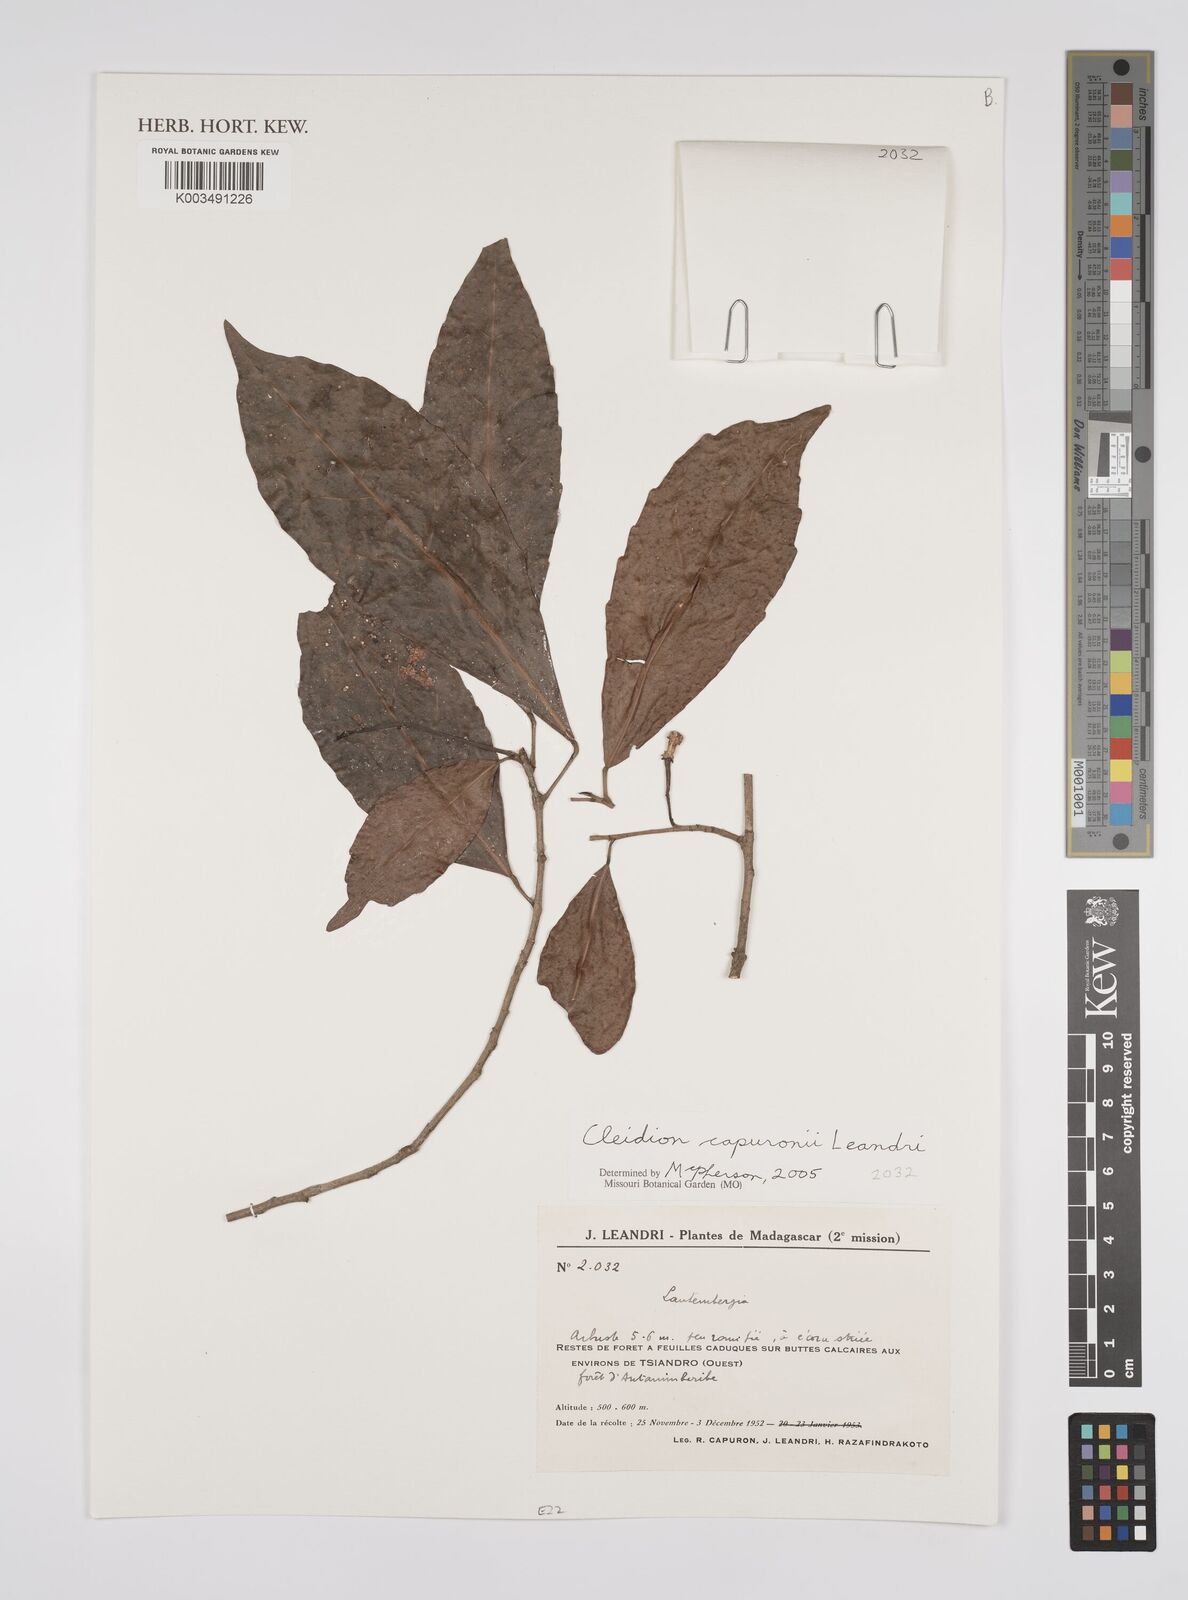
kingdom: Plantae
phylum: Tracheophyta
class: Magnoliopsida
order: Malpighiales
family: Euphorbiaceae
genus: Cleidion
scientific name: Cleidion capuronii
